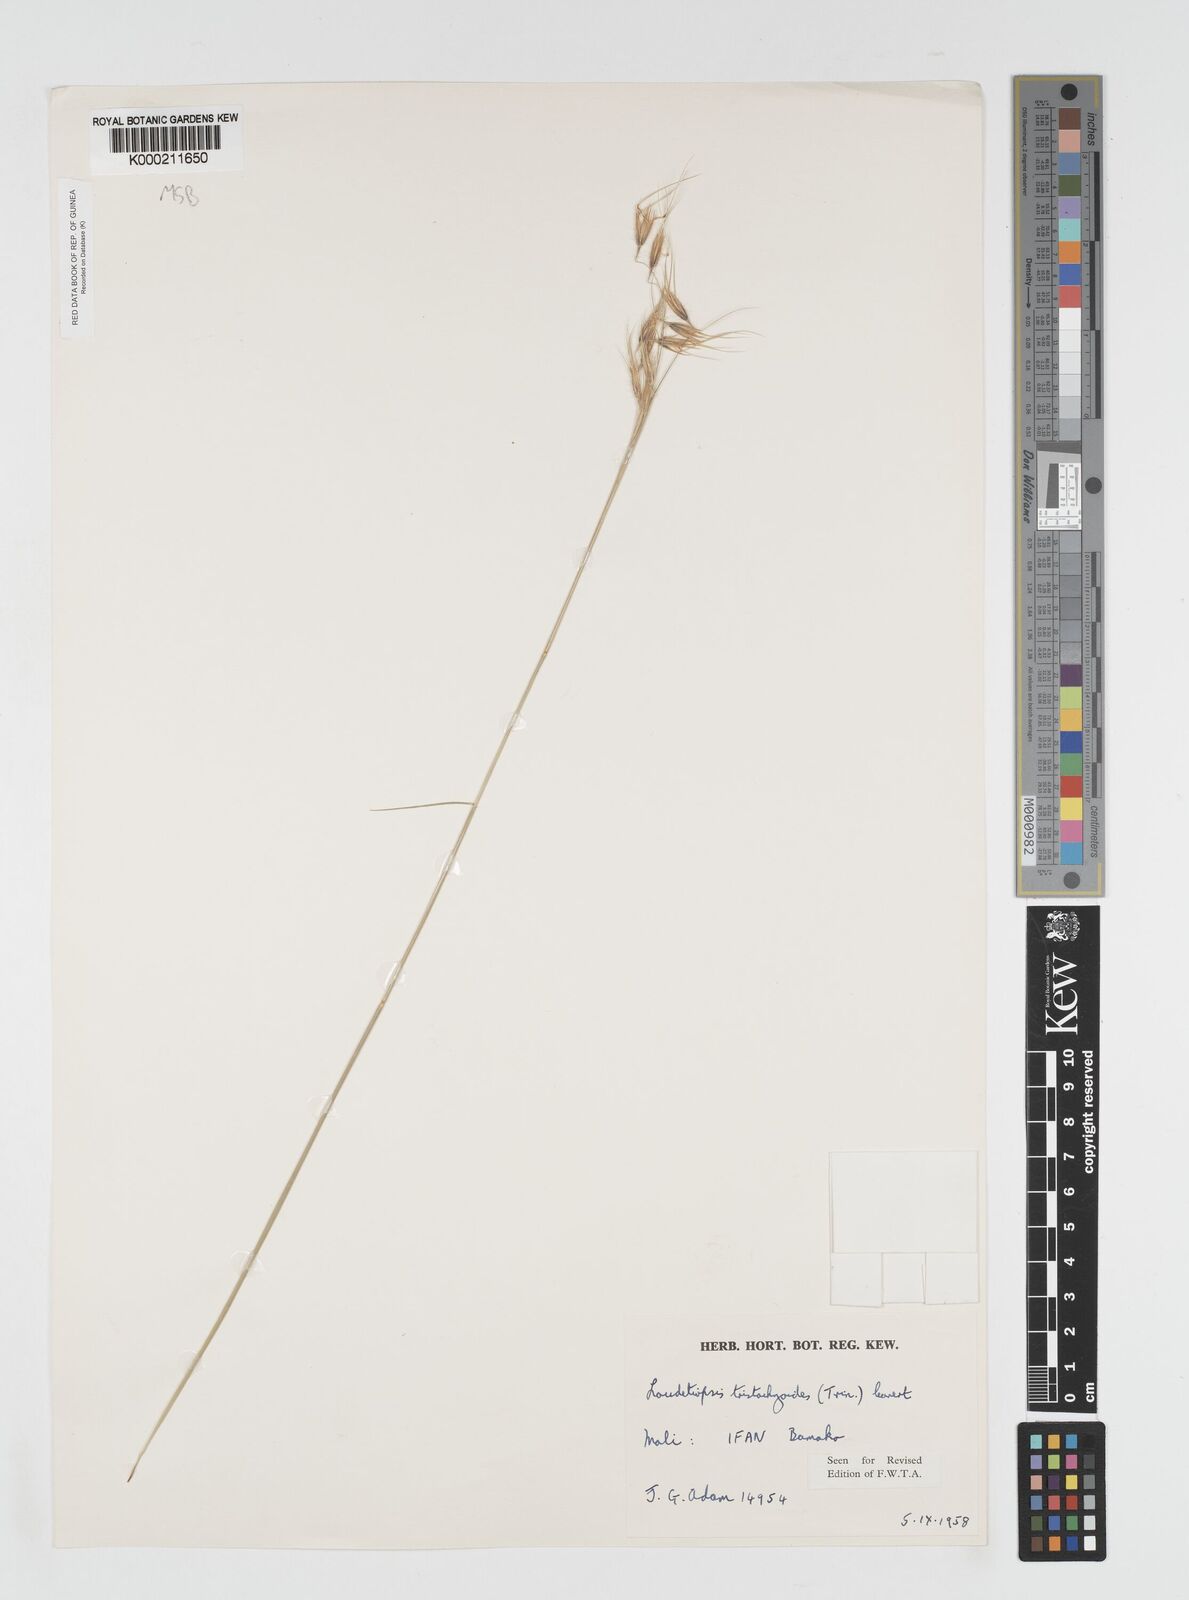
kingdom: Plantae
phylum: Tracheophyta
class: Liliopsida
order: Poales
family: Poaceae
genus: Dilophotriche
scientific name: Dilophotriche
